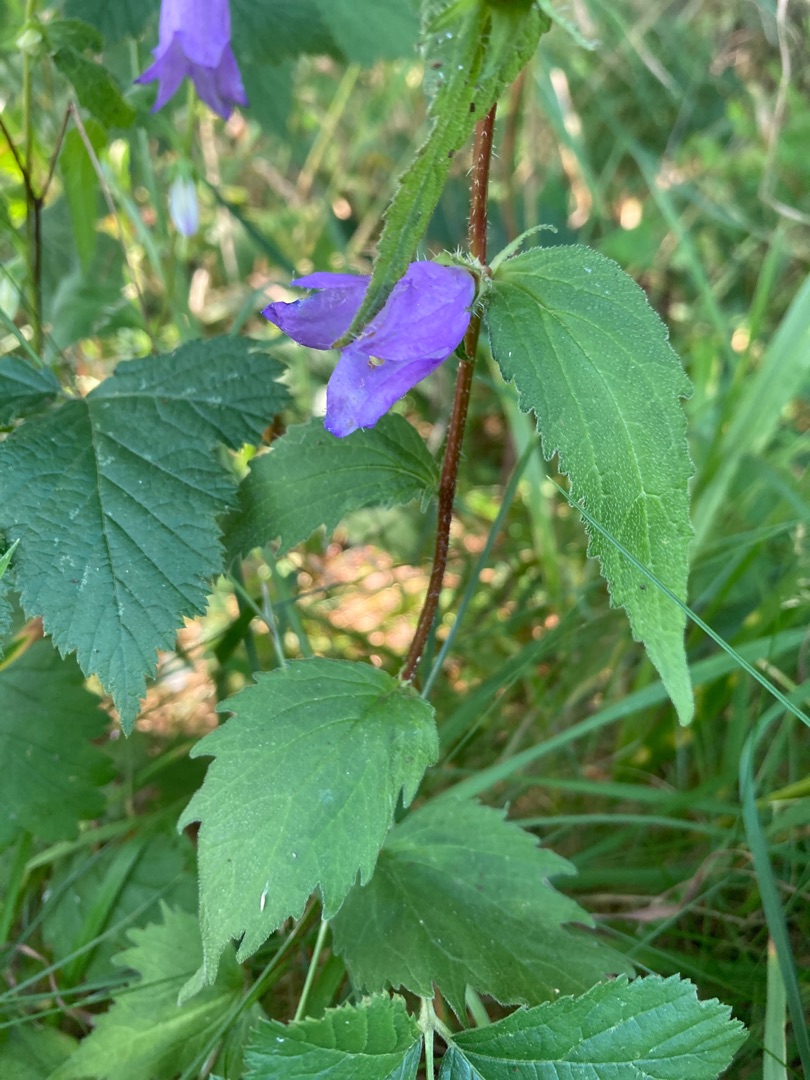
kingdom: Plantae
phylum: Tracheophyta
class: Magnoliopsida
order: Asterales
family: Campanulaceae
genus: Campanula
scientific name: Campanula trachelium
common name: Nælde-klokke
